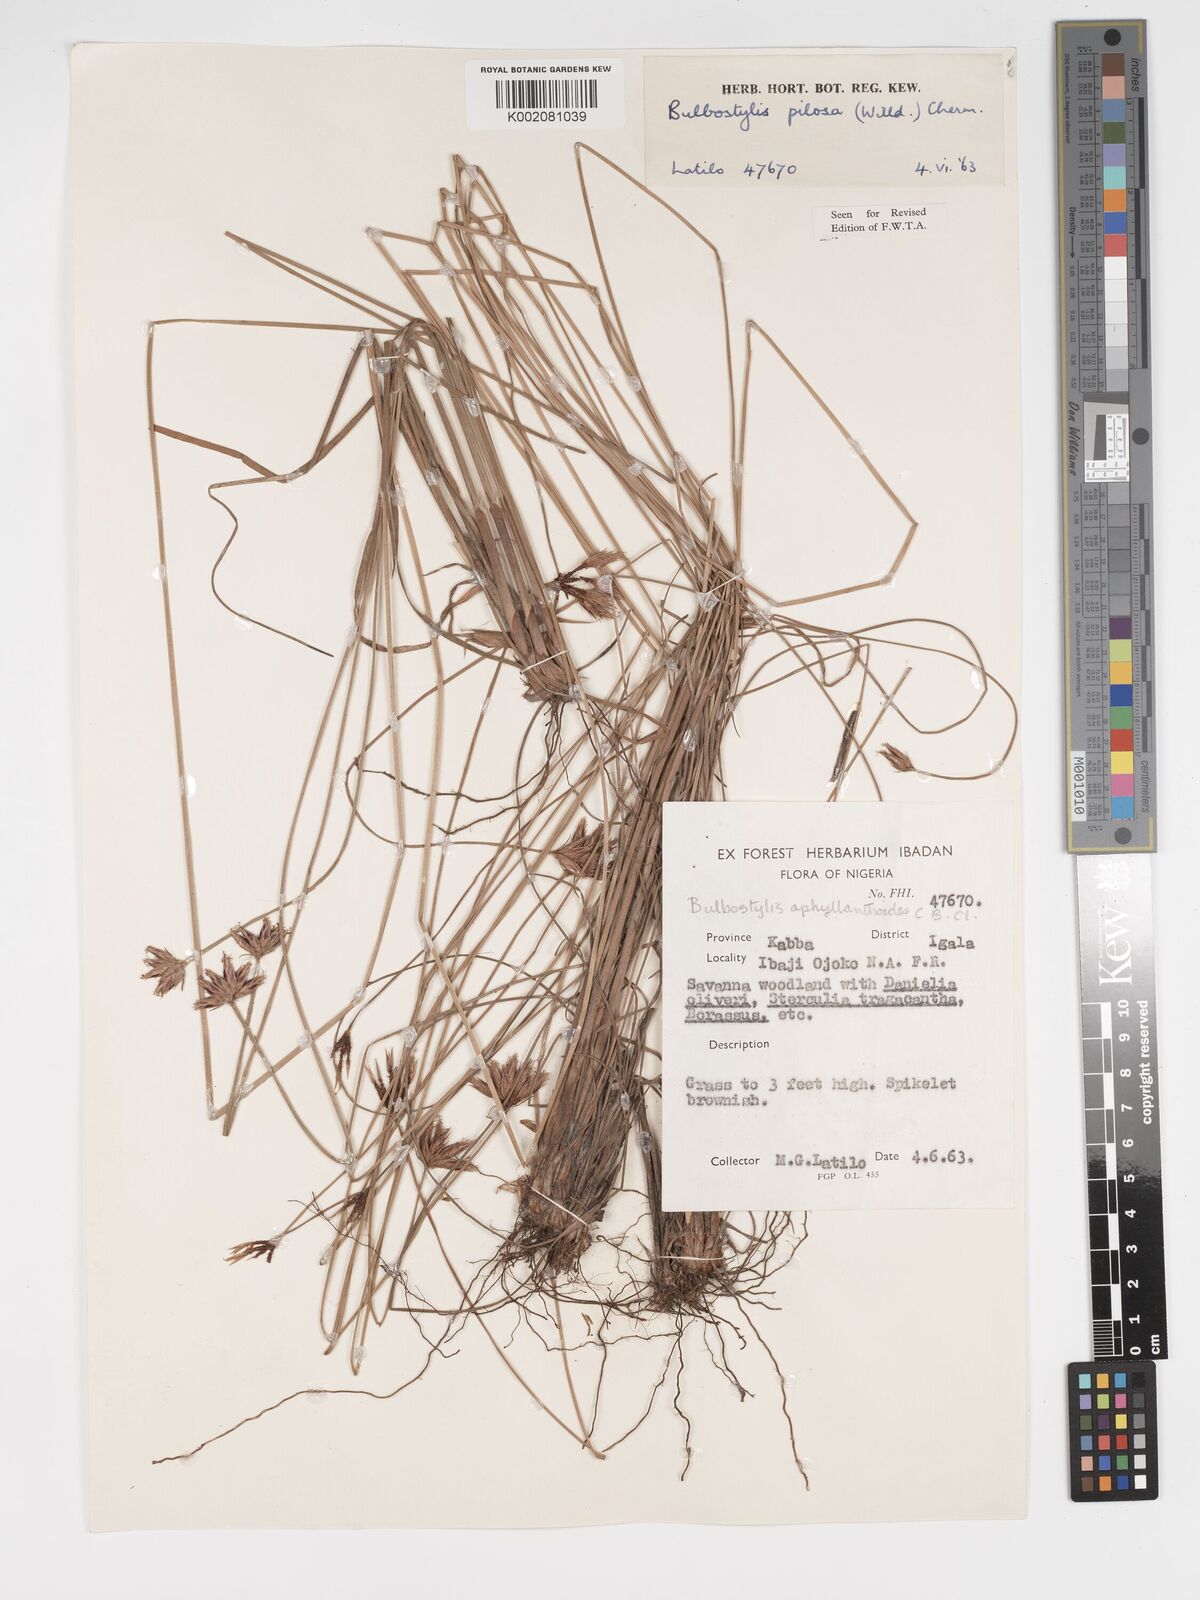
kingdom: Plantae
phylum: Tracheophyta
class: Liliopsida
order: Poales
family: Cyperaceae
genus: Bulbostylis
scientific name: Bulbostylis pilosa
